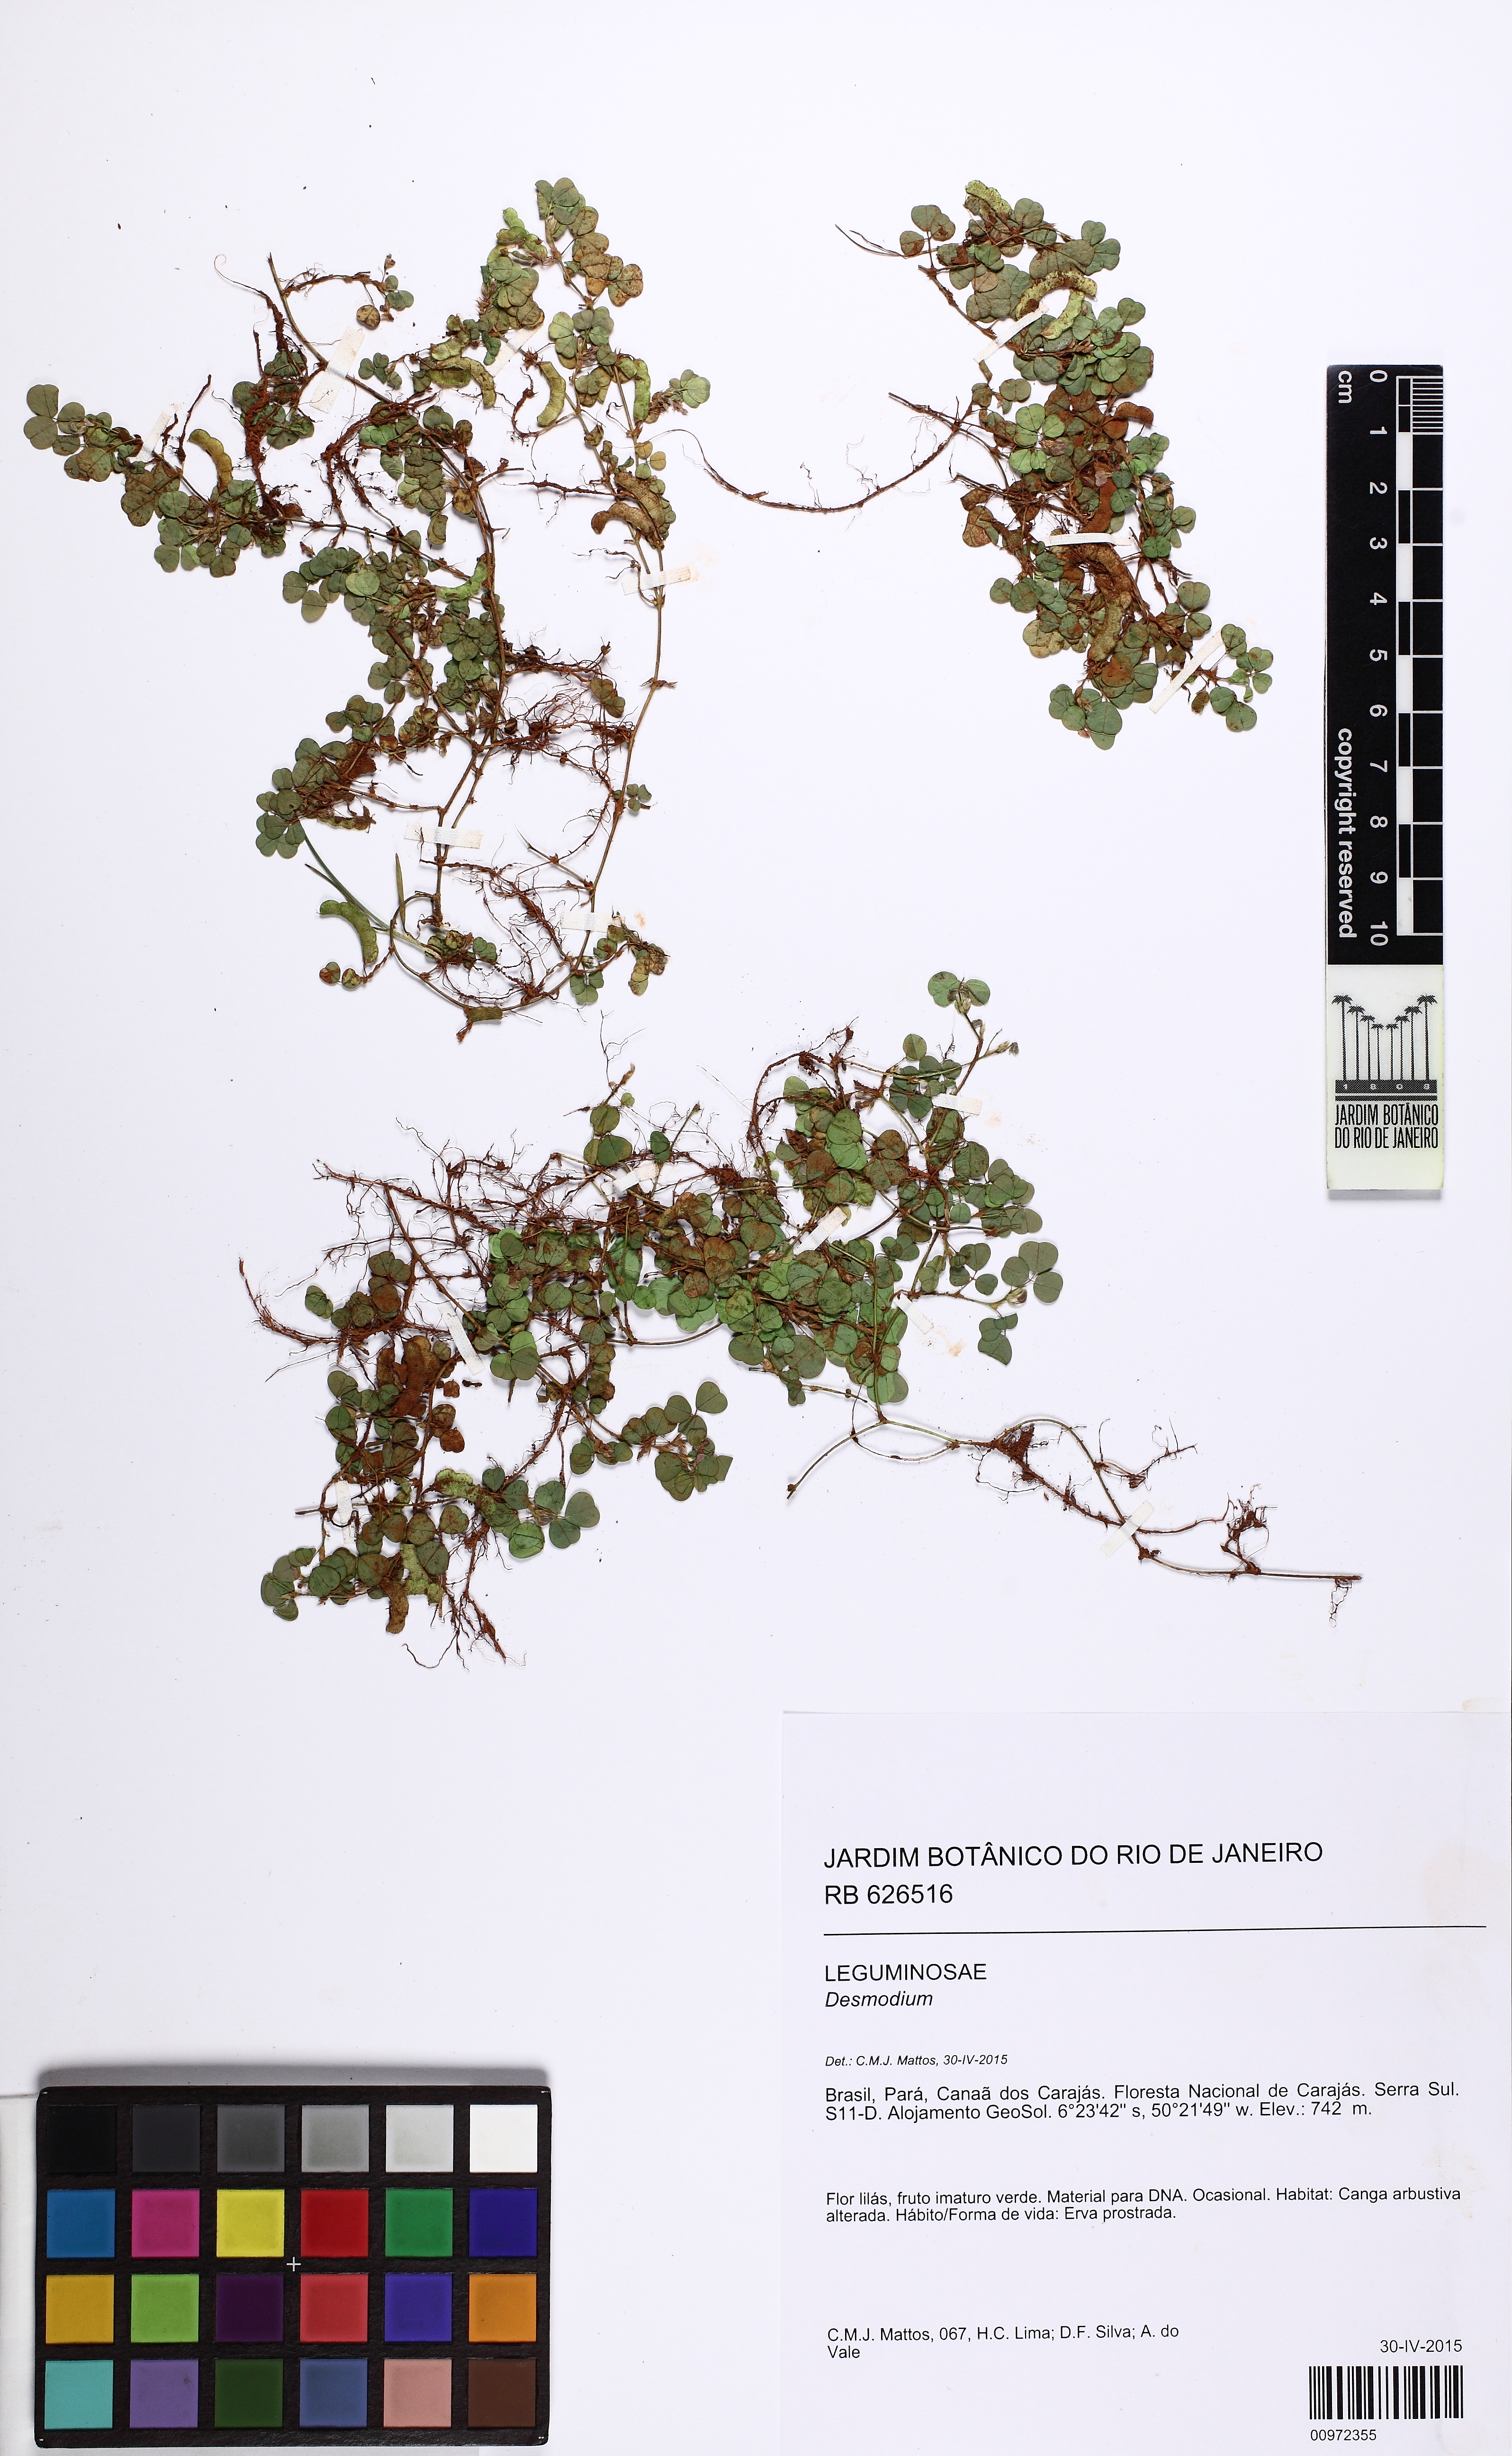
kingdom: Plantae
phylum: Tracheophyta
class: Magnoliopsida
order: Fabales
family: Fabaceae
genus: Grona
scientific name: Grona triflora
